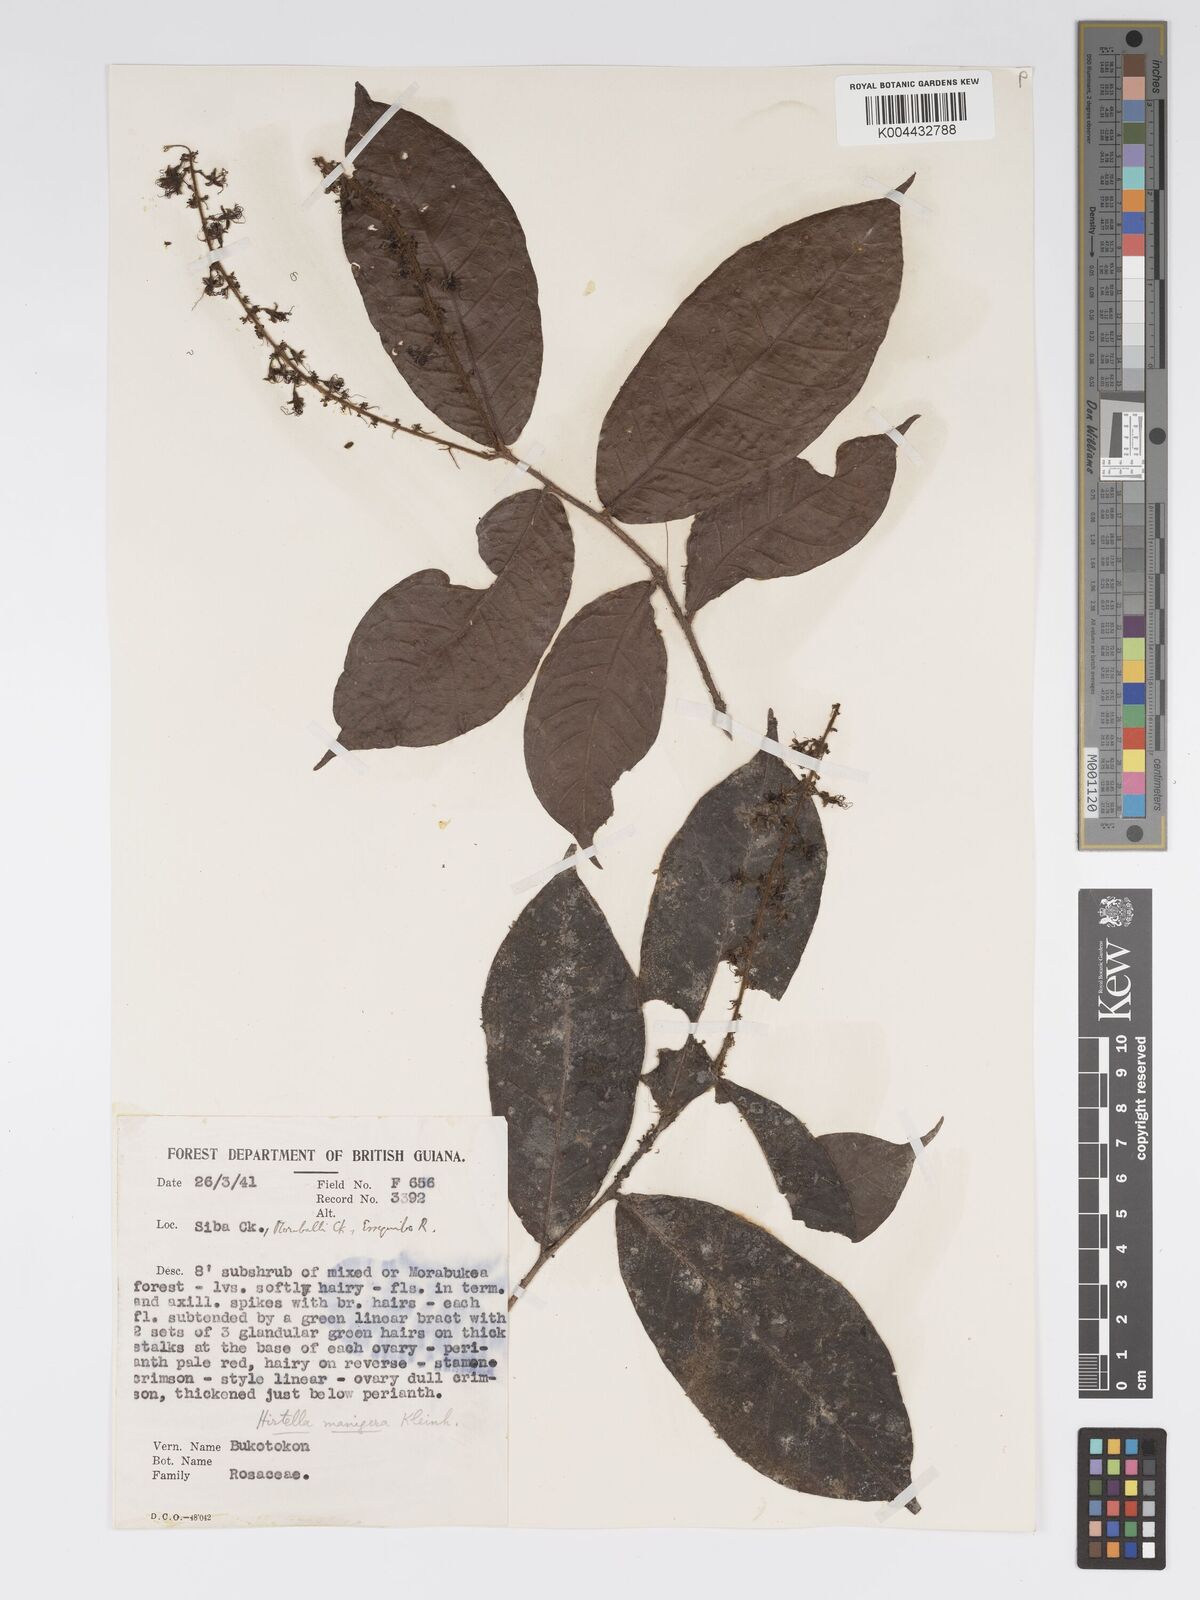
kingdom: Plantae
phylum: Tracheophyta
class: Magnoliopsida
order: Malpighiales
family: Chrysobalanaceae
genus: Hirtella
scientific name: Hirtella silicea
